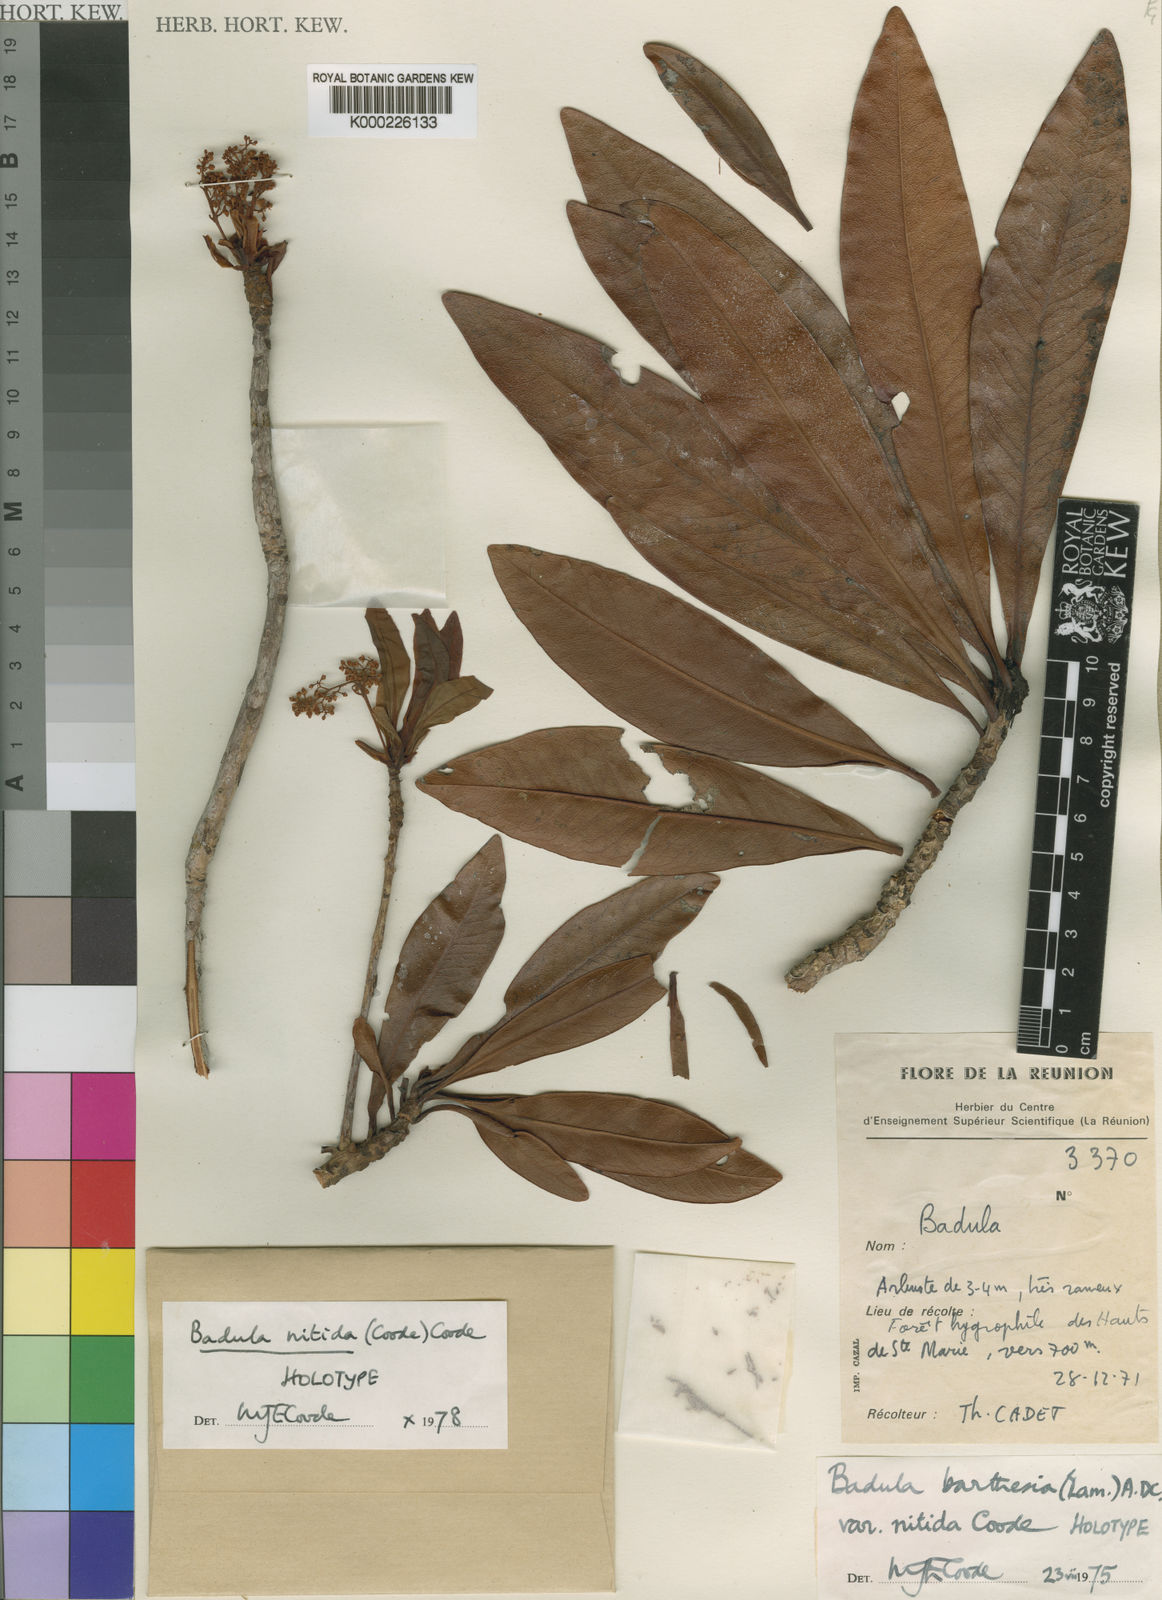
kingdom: Plantae
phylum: Tracheophyta
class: Magnoliopsida
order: Ericales
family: Primulaceae
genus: Badula
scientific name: Badula nitida
